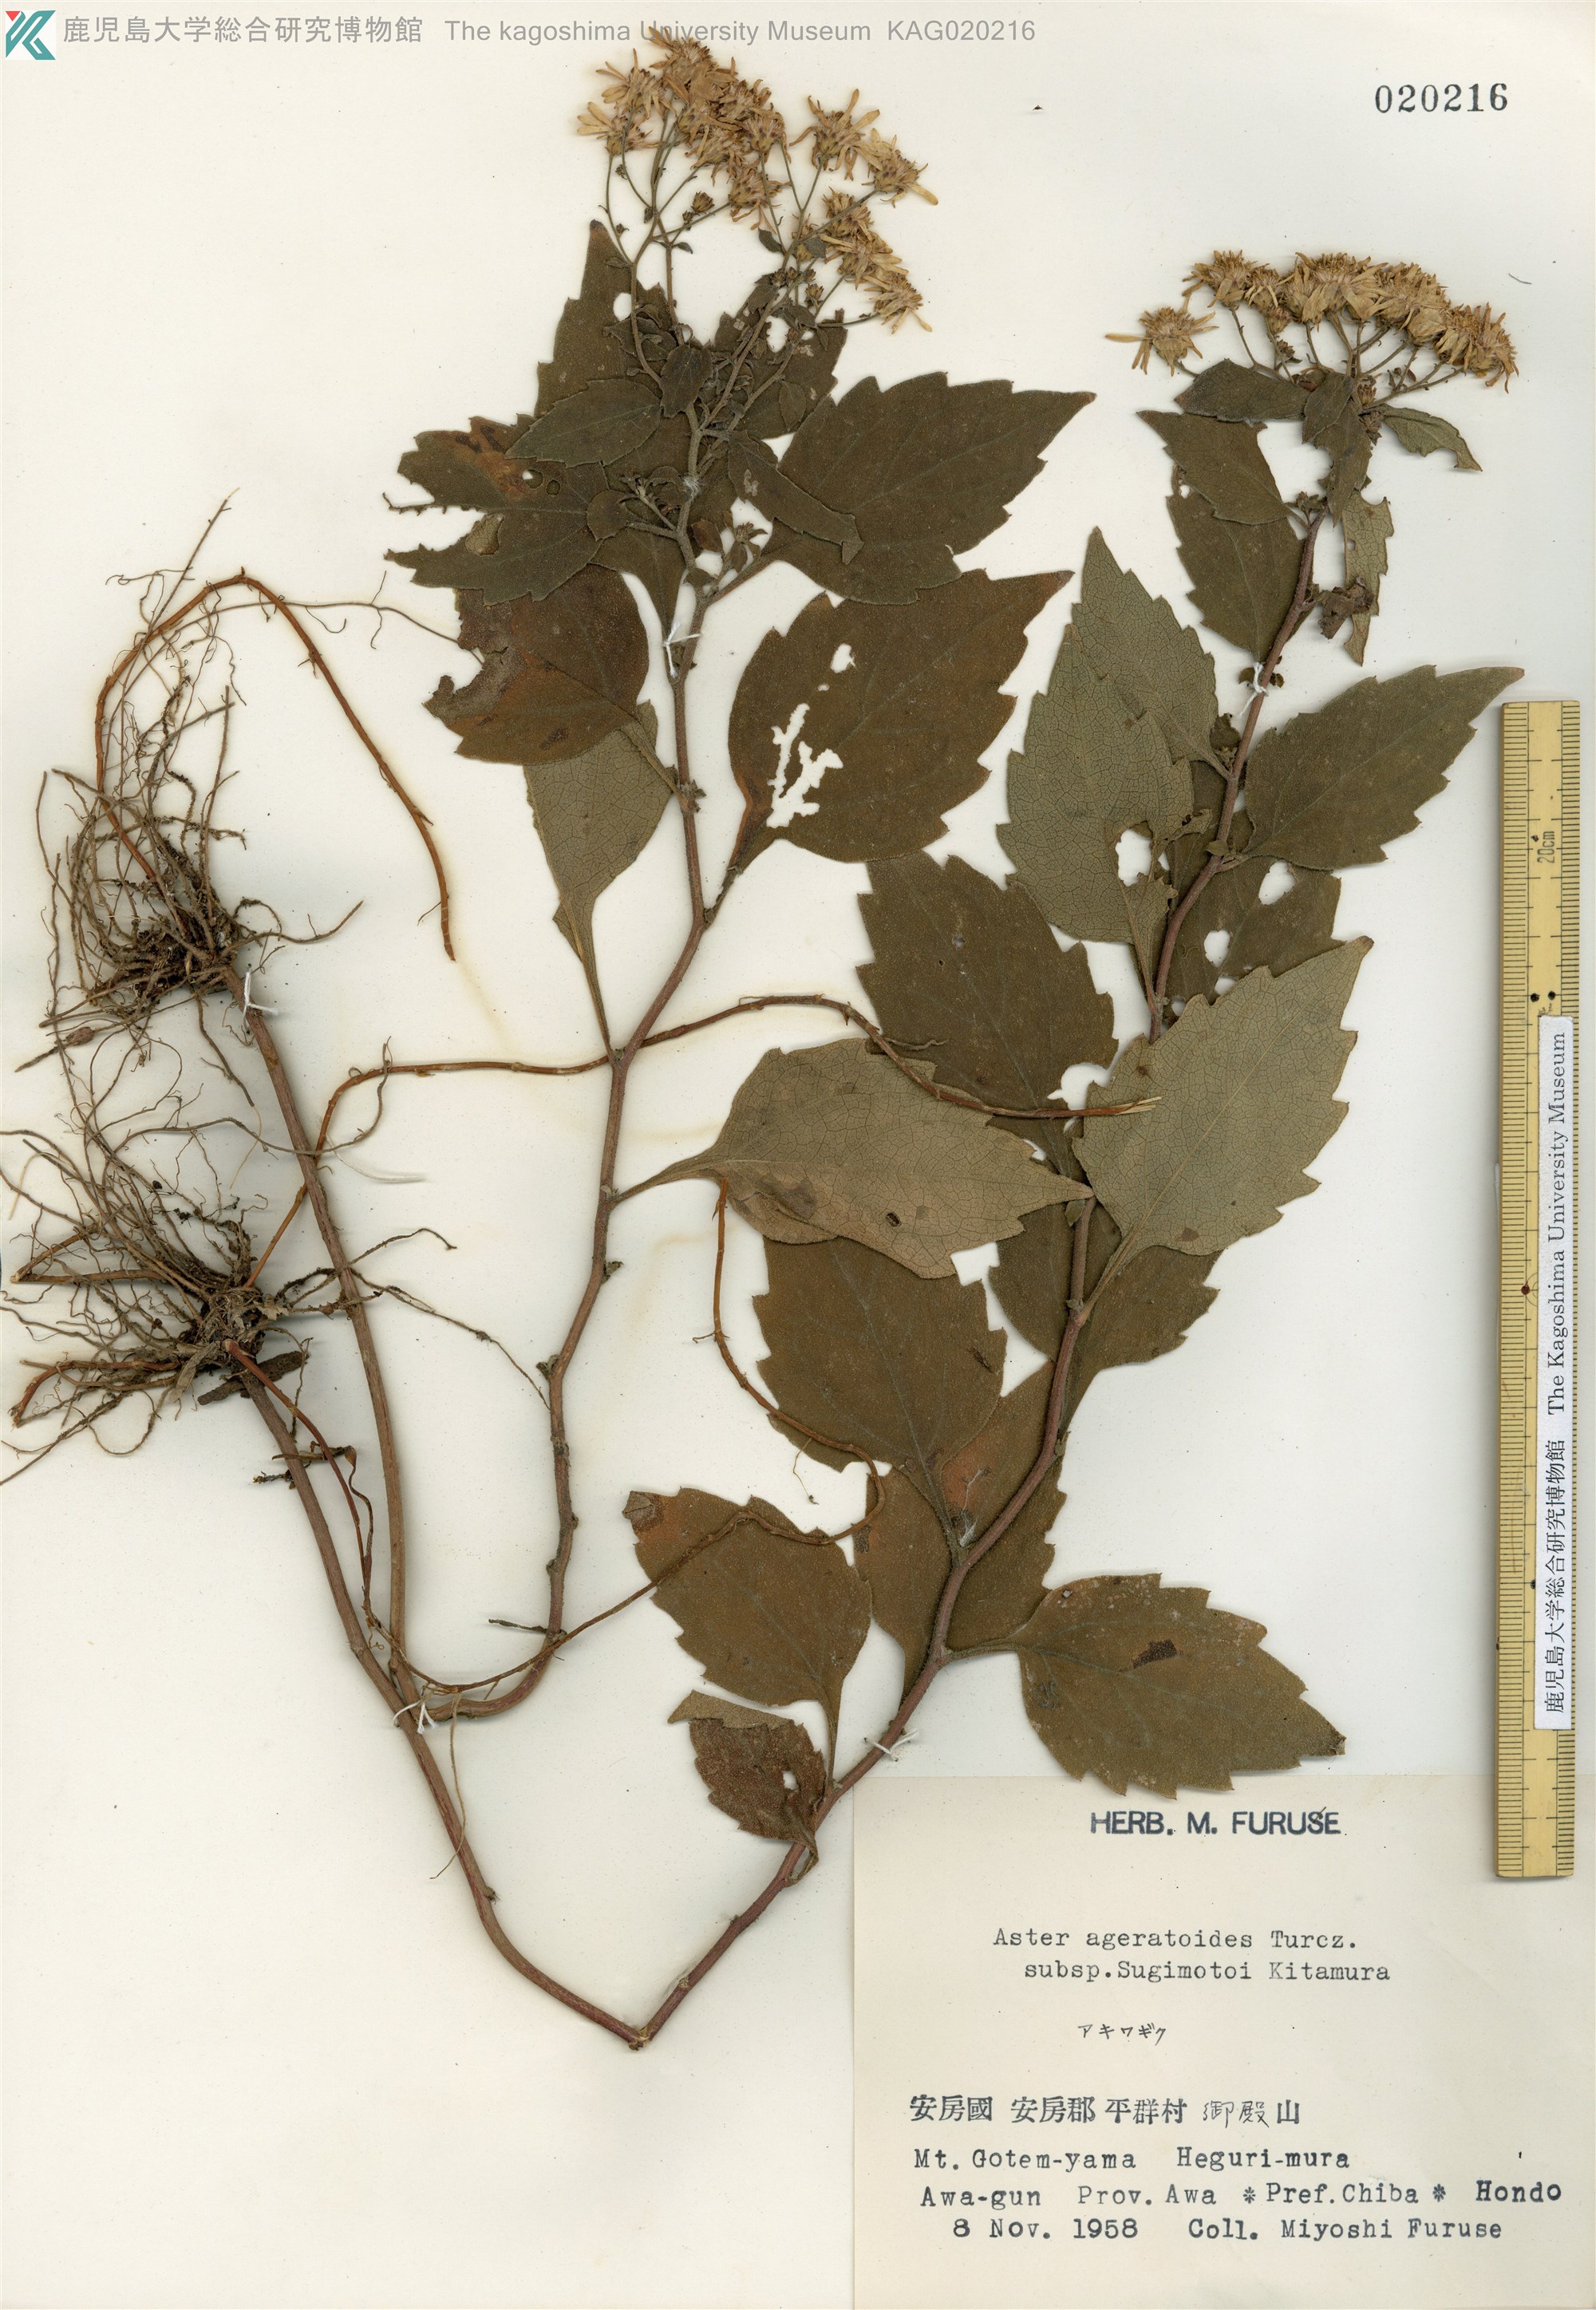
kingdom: Plantae
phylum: Tracheophyta
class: Magnoliopsida
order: Asterales
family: Asteraceae
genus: Aster
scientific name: Aster sugimotoi
